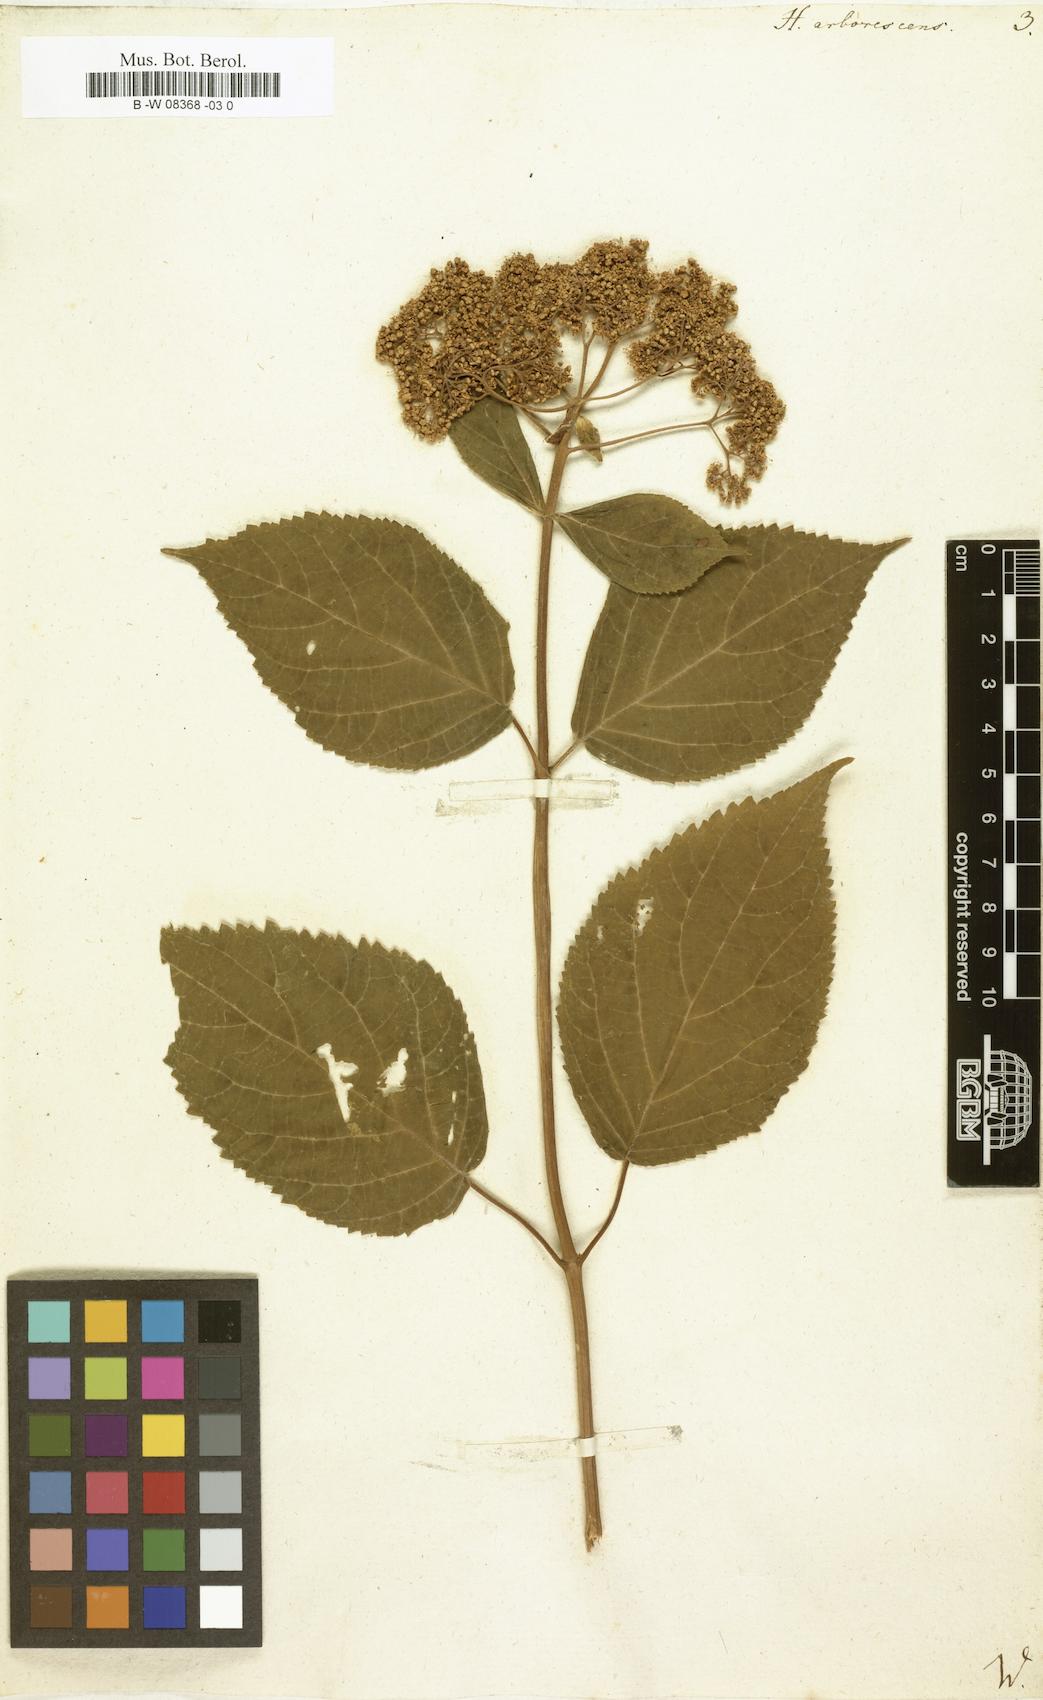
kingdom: Plantae
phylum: Tracheophyta
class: Magnoliopsida
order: Cornales
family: Hydrangeaceae
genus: Hydrangea
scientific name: Hydrangea arborescens
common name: Sevenbark
